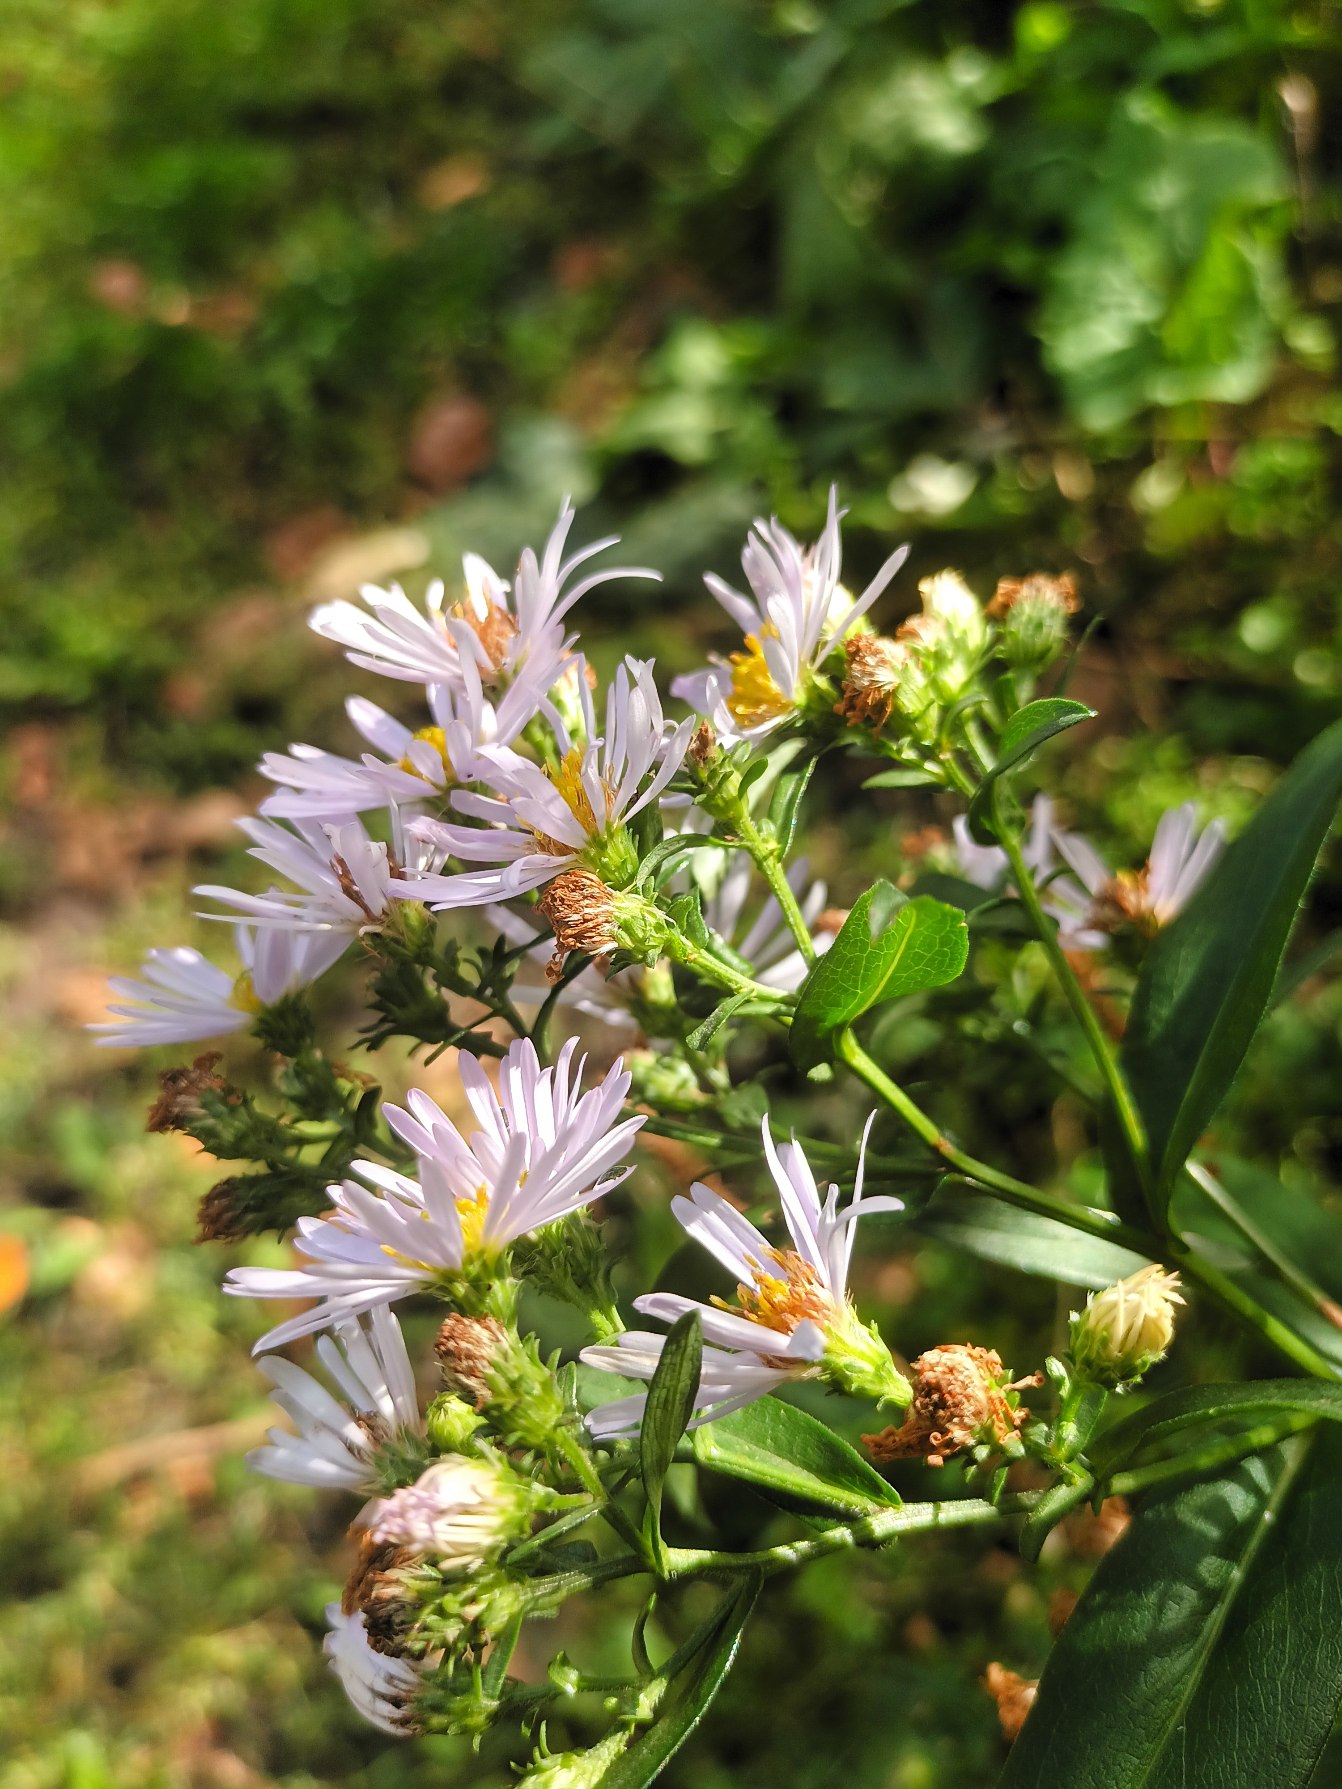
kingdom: Plantae
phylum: Tracheophyta
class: Magnoliopsida
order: Asterales
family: Asteraceae
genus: Symphyotrichum
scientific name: Symphyotrichum versicolor
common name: Broget asters
